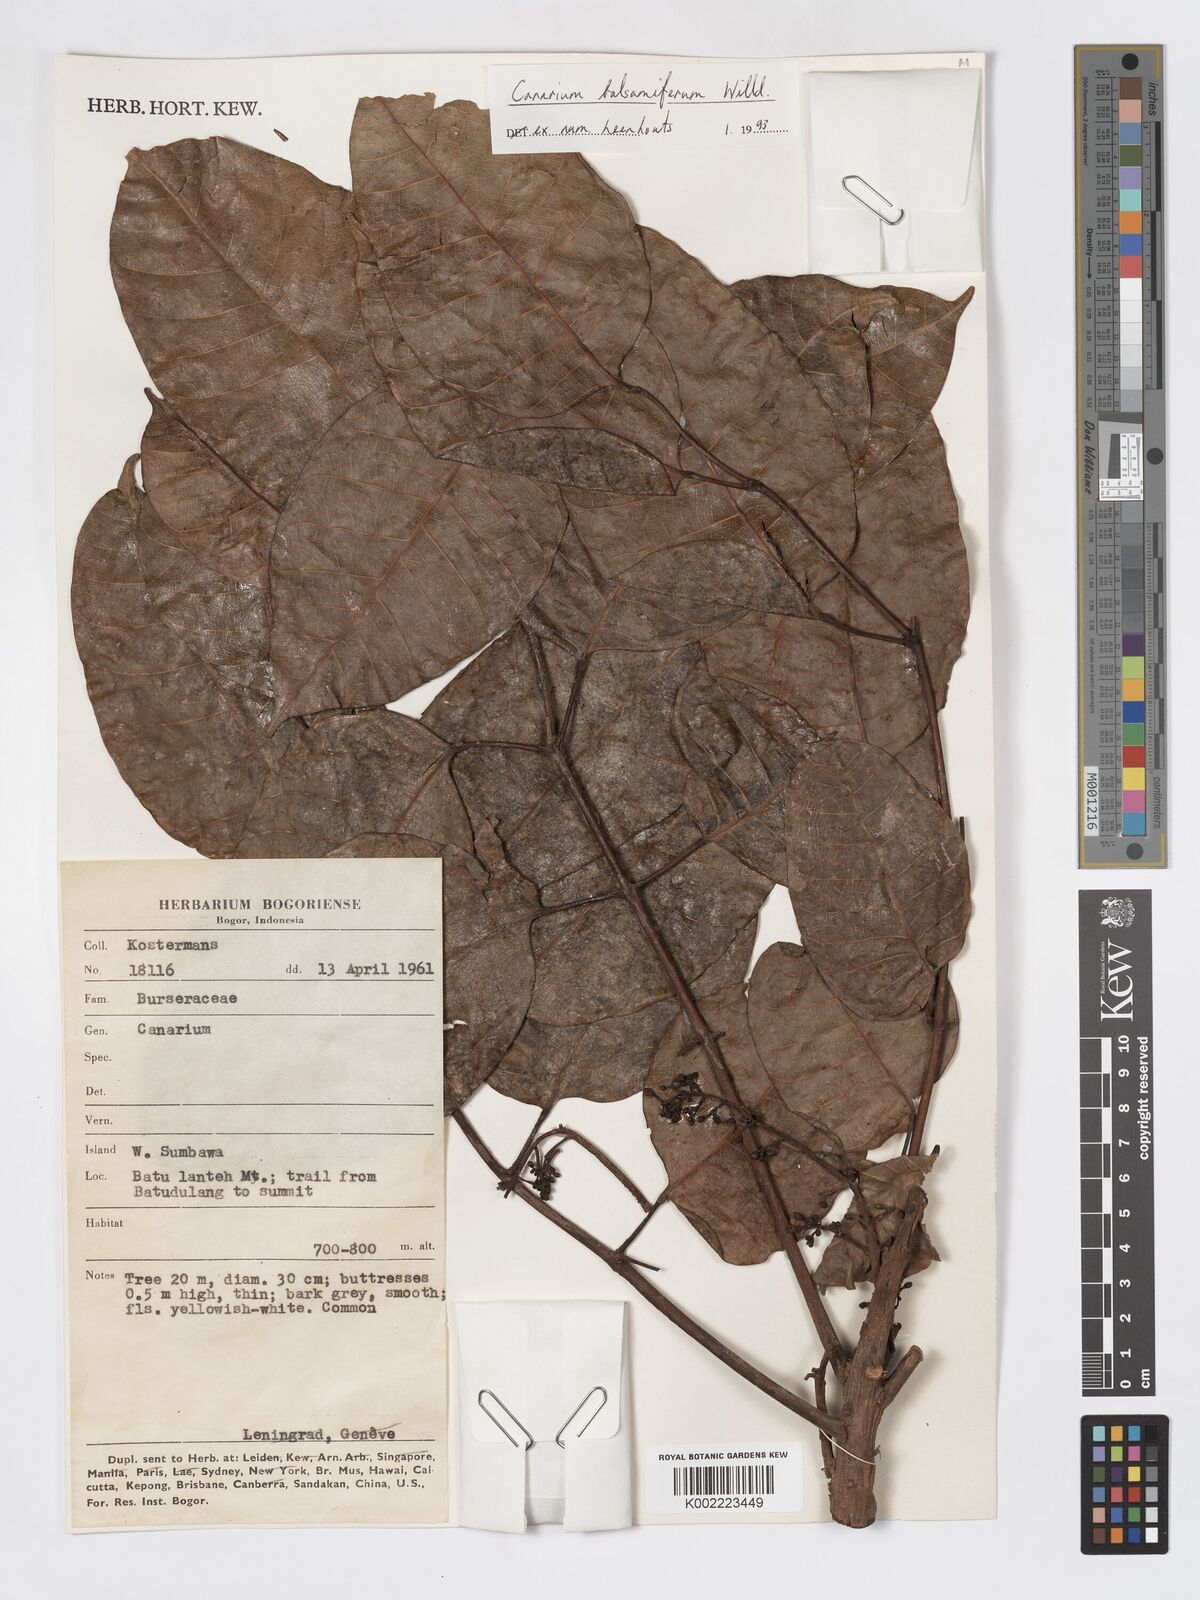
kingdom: Plantae
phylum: Tracheophyta
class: Magnoliopsida
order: Sapindales
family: Burseraceae
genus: Canarium
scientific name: Canarium
